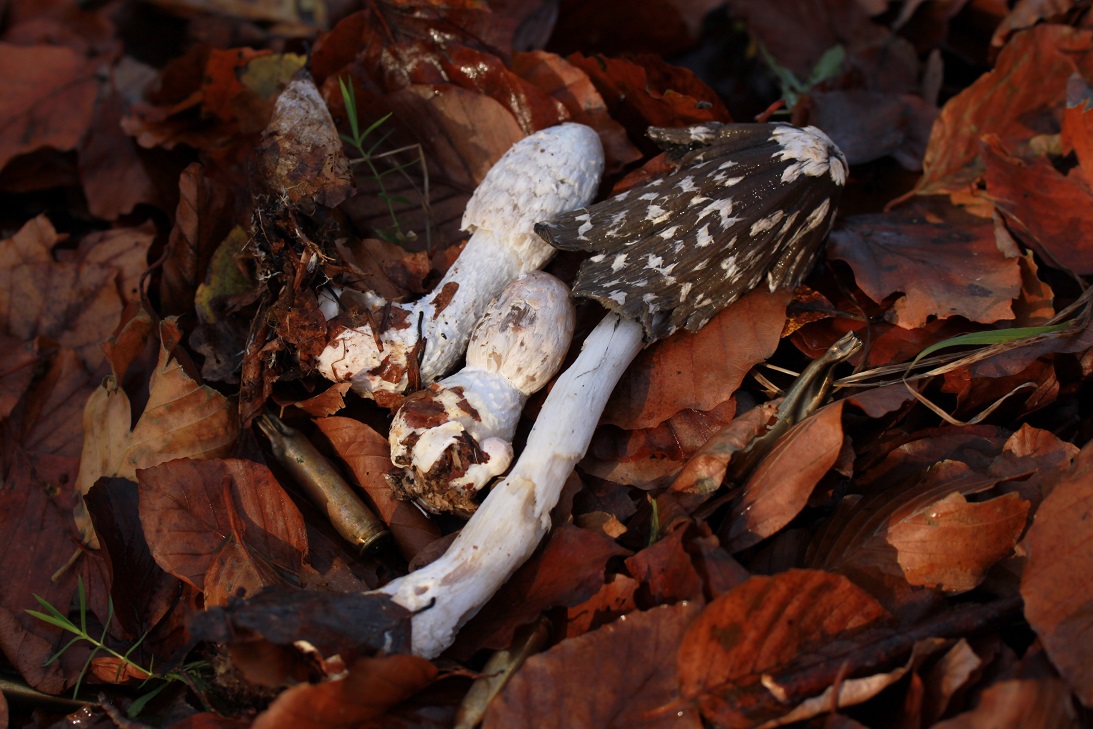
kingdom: Fungi
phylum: Basidiomycota
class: Agaricomycetes
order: Agaricales
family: Psathyrellaceae
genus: Coprinopsis
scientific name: Coprinopsis picacea
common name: skade-blækhat
